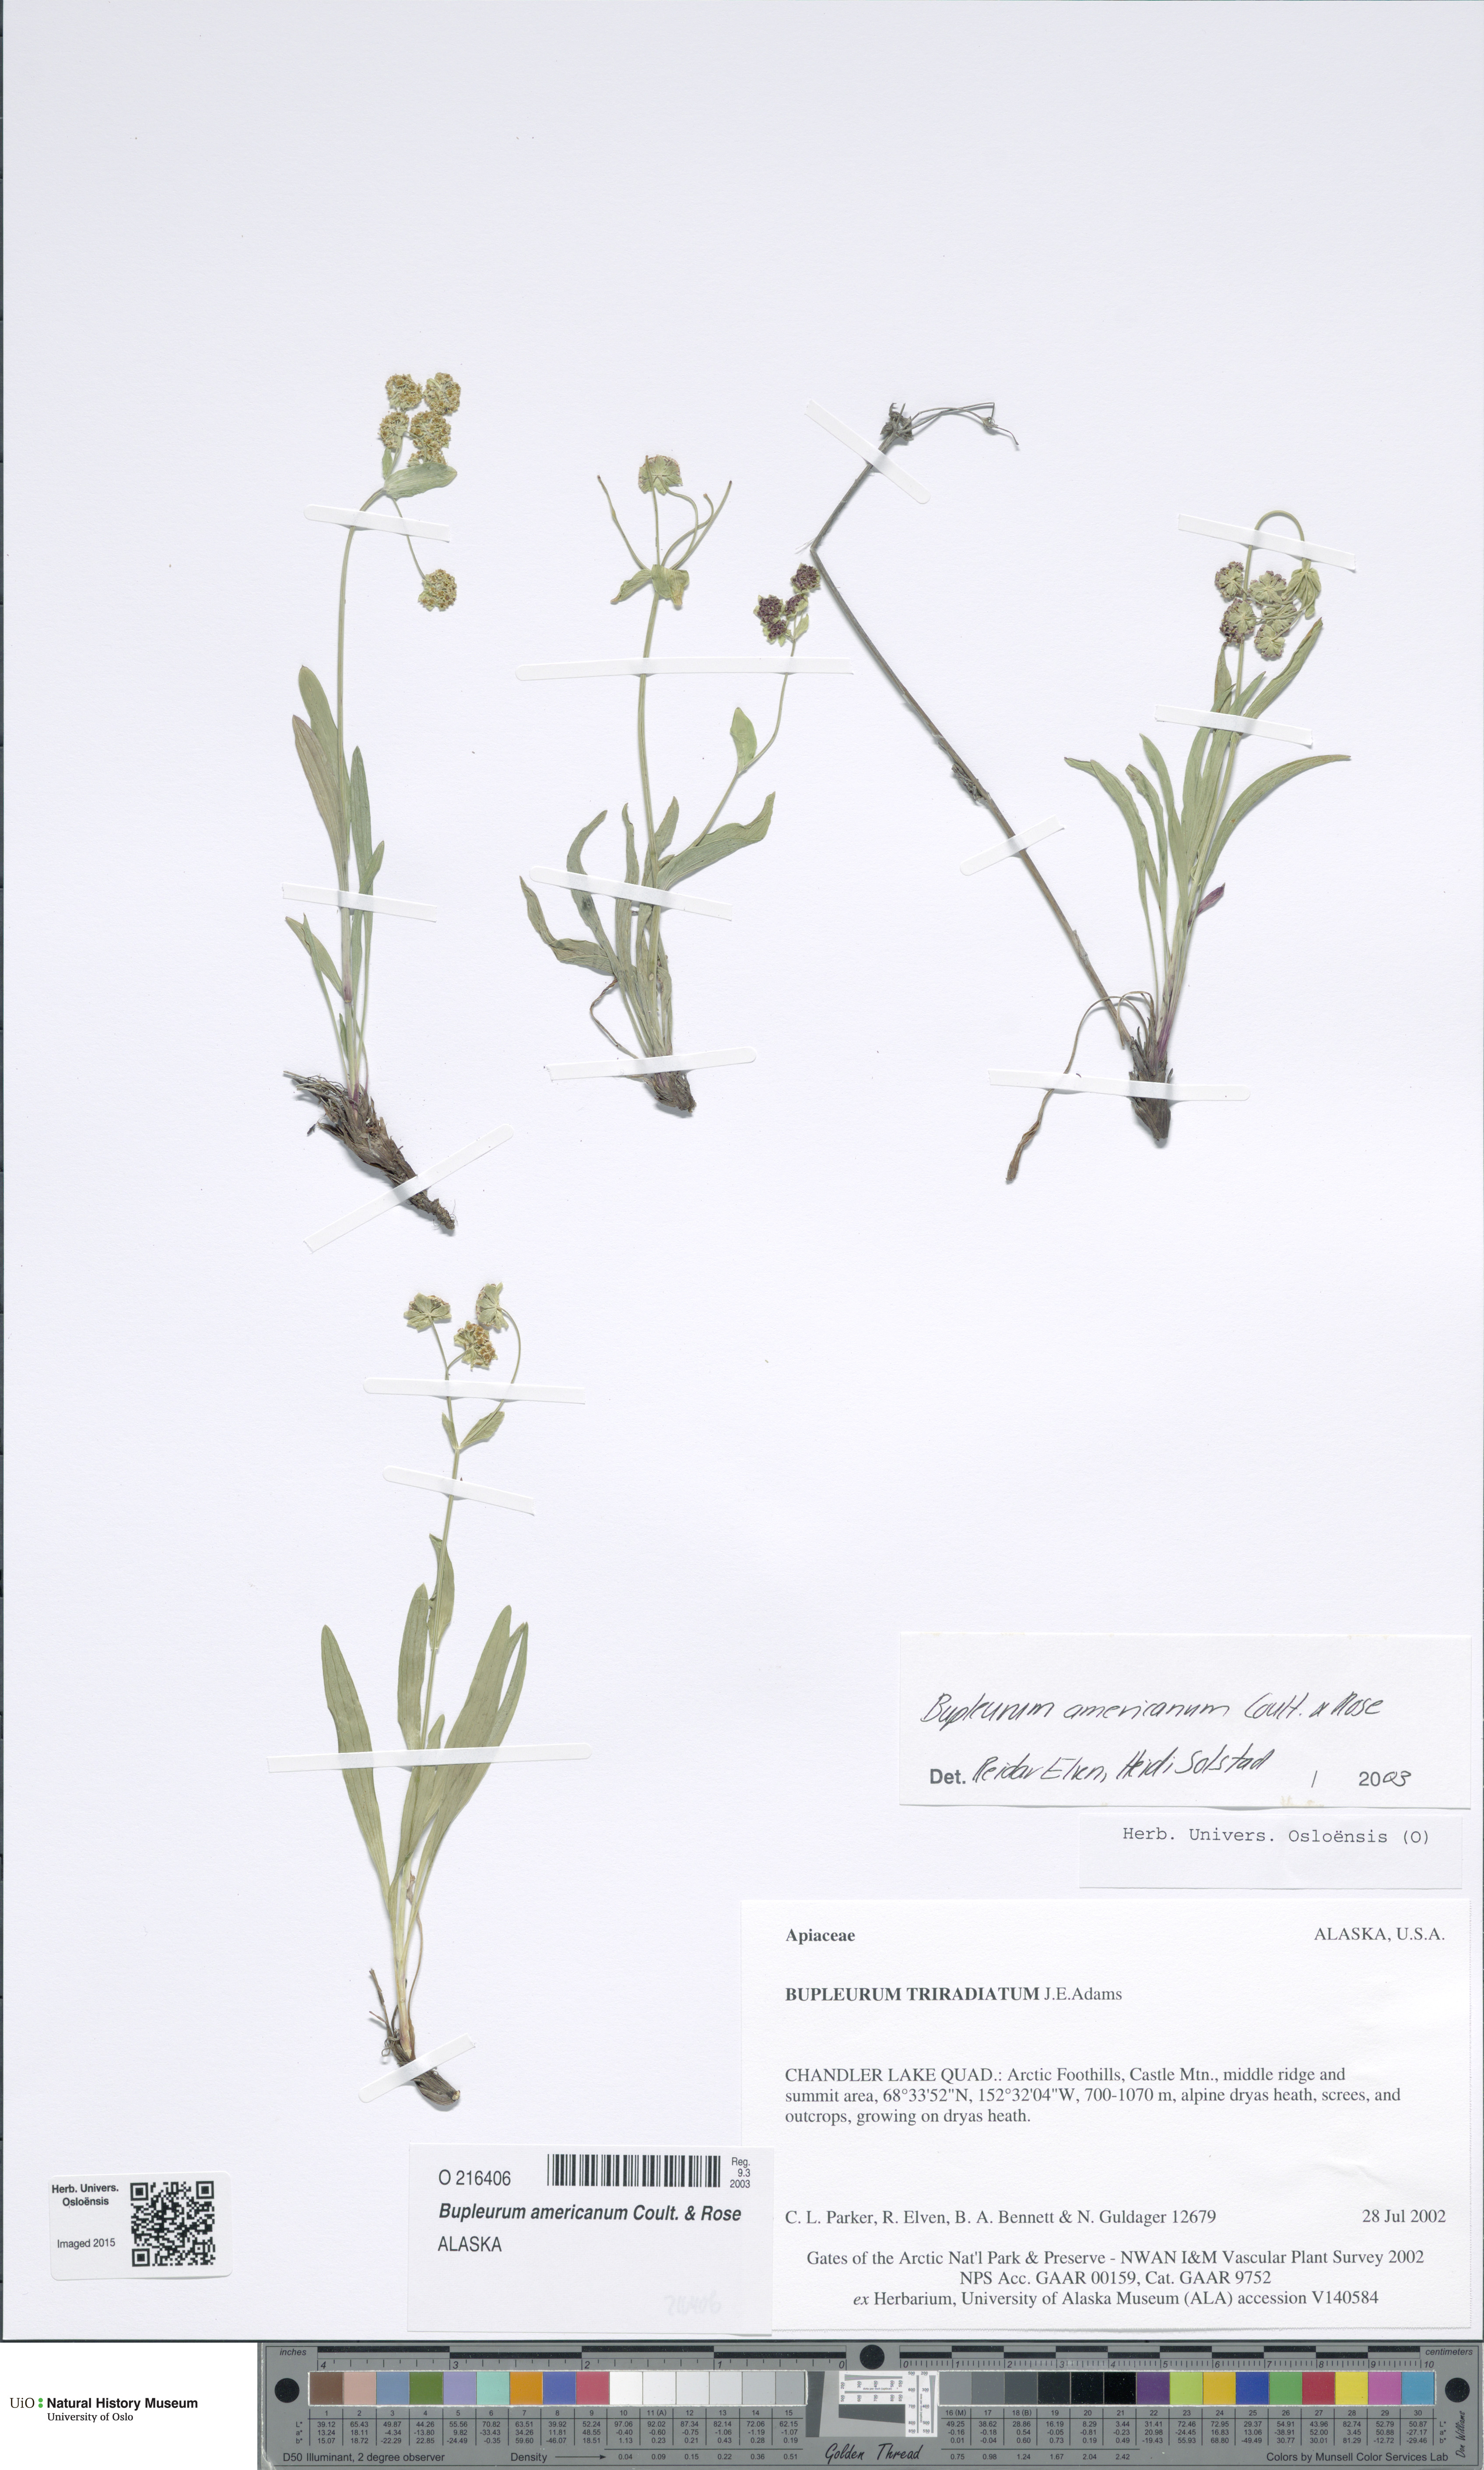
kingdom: Plantae
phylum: Tracheophyta
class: Magnoliopsida
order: Apiales
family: Apiaceae
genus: Bupleurum
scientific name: Bupleurum americanum
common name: American thoroughwax
